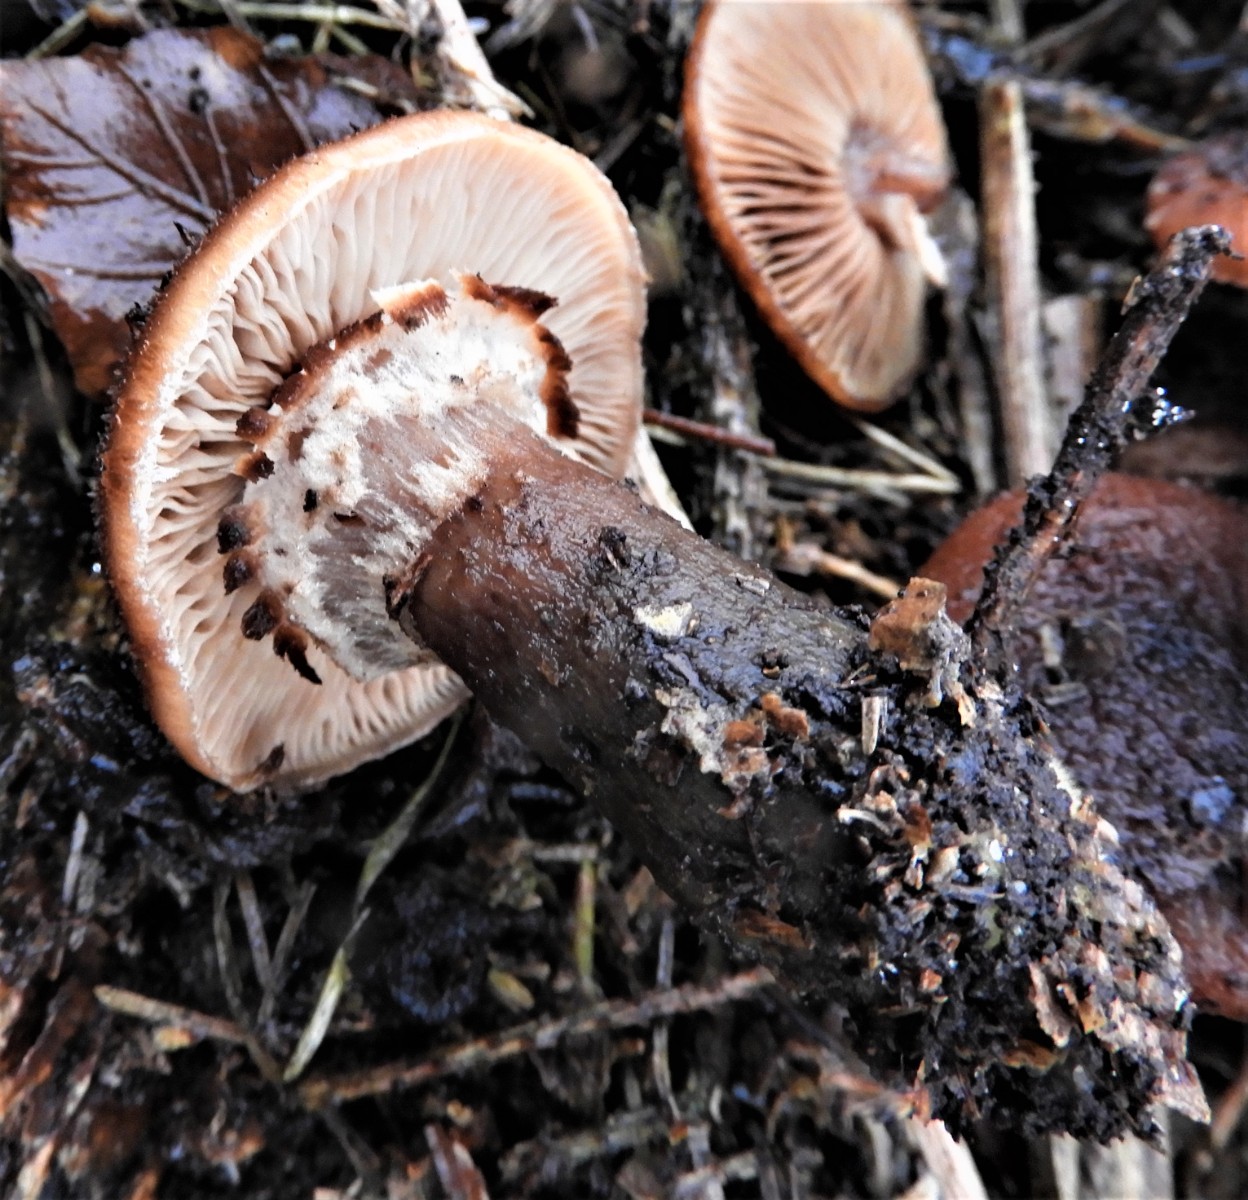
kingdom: Fungi
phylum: Basidiomycota
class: Agaricomycetes
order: Agaricales
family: Physalacriaceae
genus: Armillaria
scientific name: Armillaria ostoyae
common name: mørk honningsvamp
